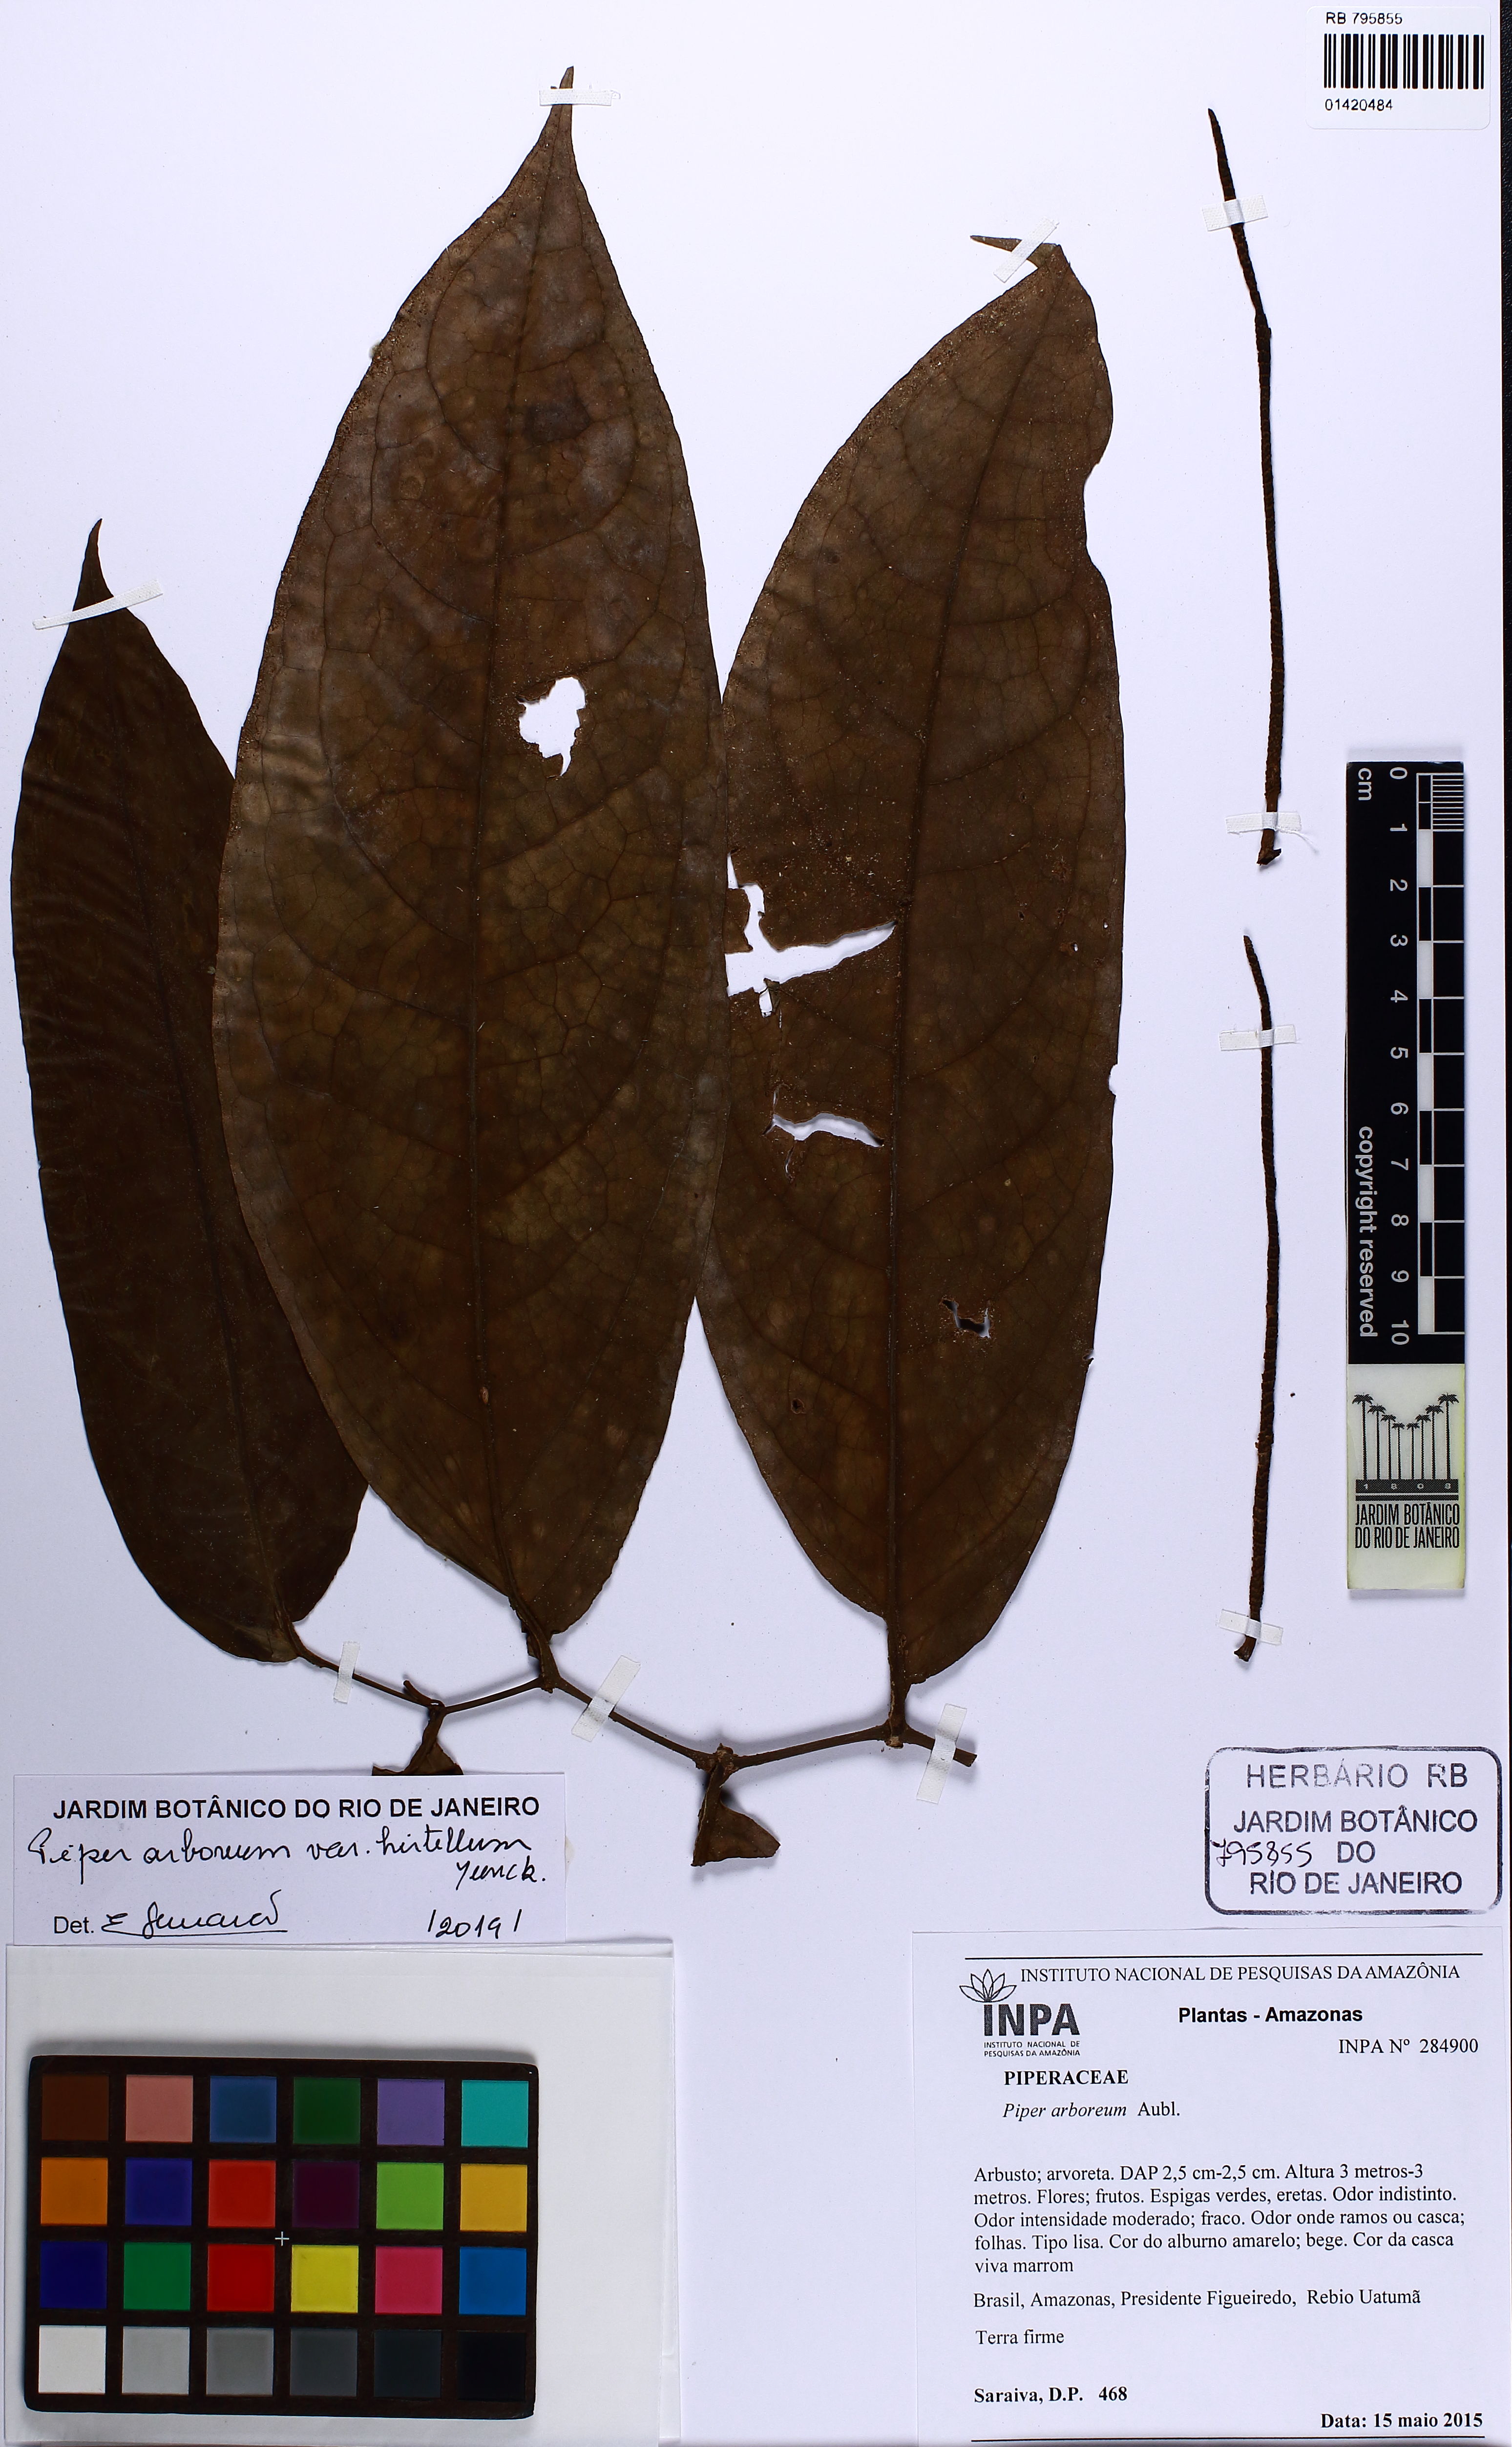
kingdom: Plantae
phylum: Tracheophyta
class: Magnoliopsida
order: Piperales
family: Piperaceae
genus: Piper
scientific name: Piper arboreum
